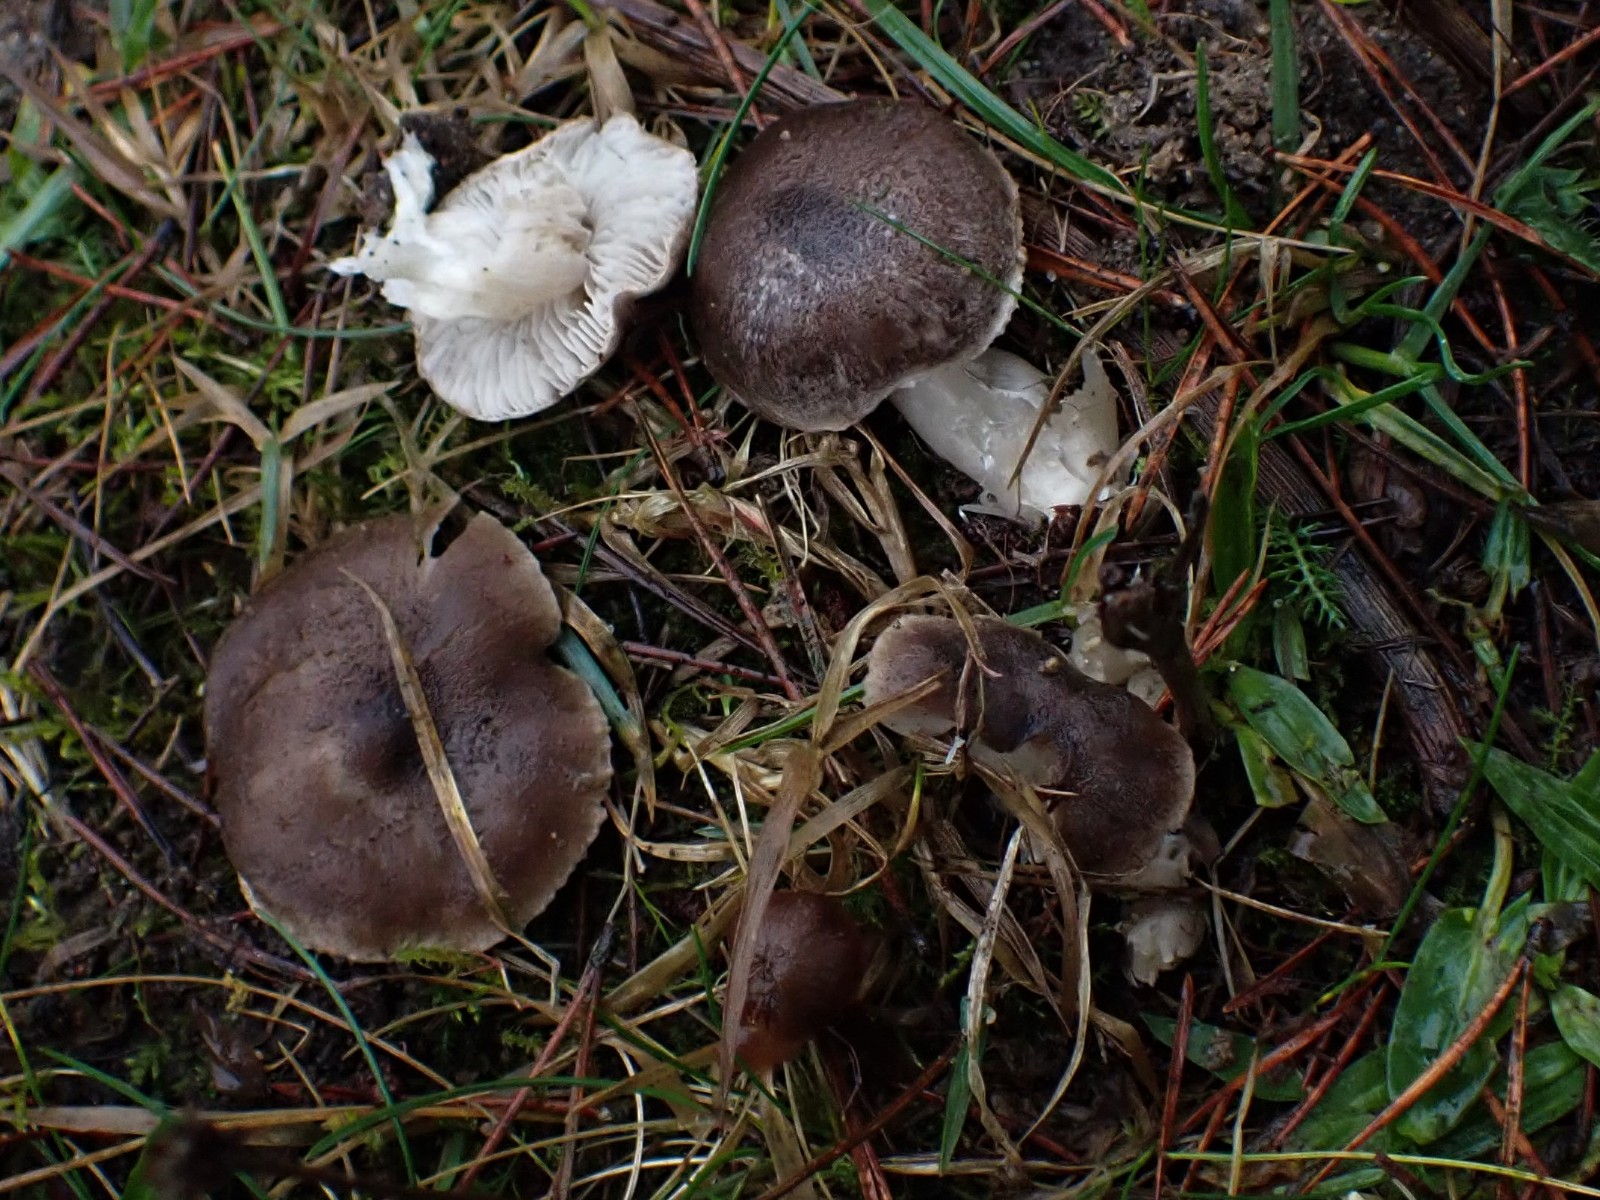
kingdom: Fungi
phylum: Basidiomycota
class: Agaricomycetes
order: Agaricales
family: Tricholomataceae
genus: Tricholoma
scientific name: Tricholoma terreum
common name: jordfarvet ridderhat
